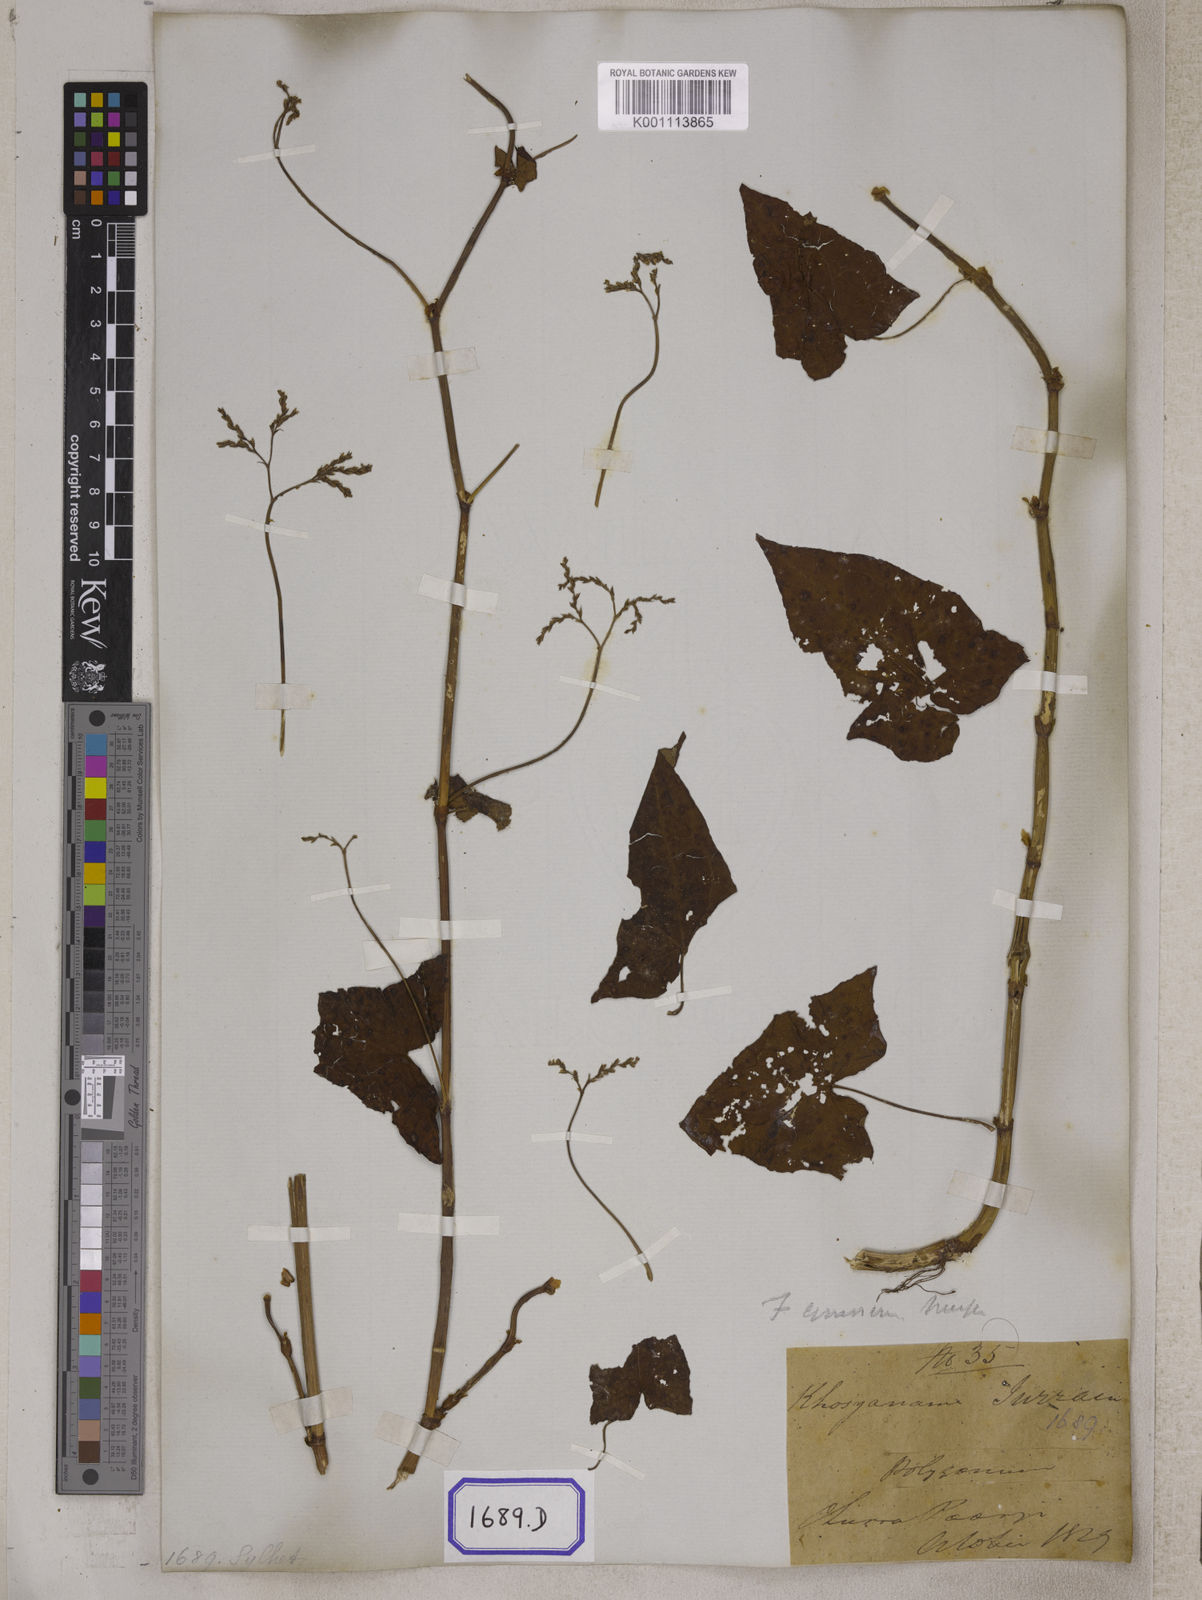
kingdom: Plantae
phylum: Tracheophyta
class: Magnoliopsida
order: Caryophyllales
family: Polygonaceae
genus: Fagopyrum
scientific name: Fagopyrum cymosum
